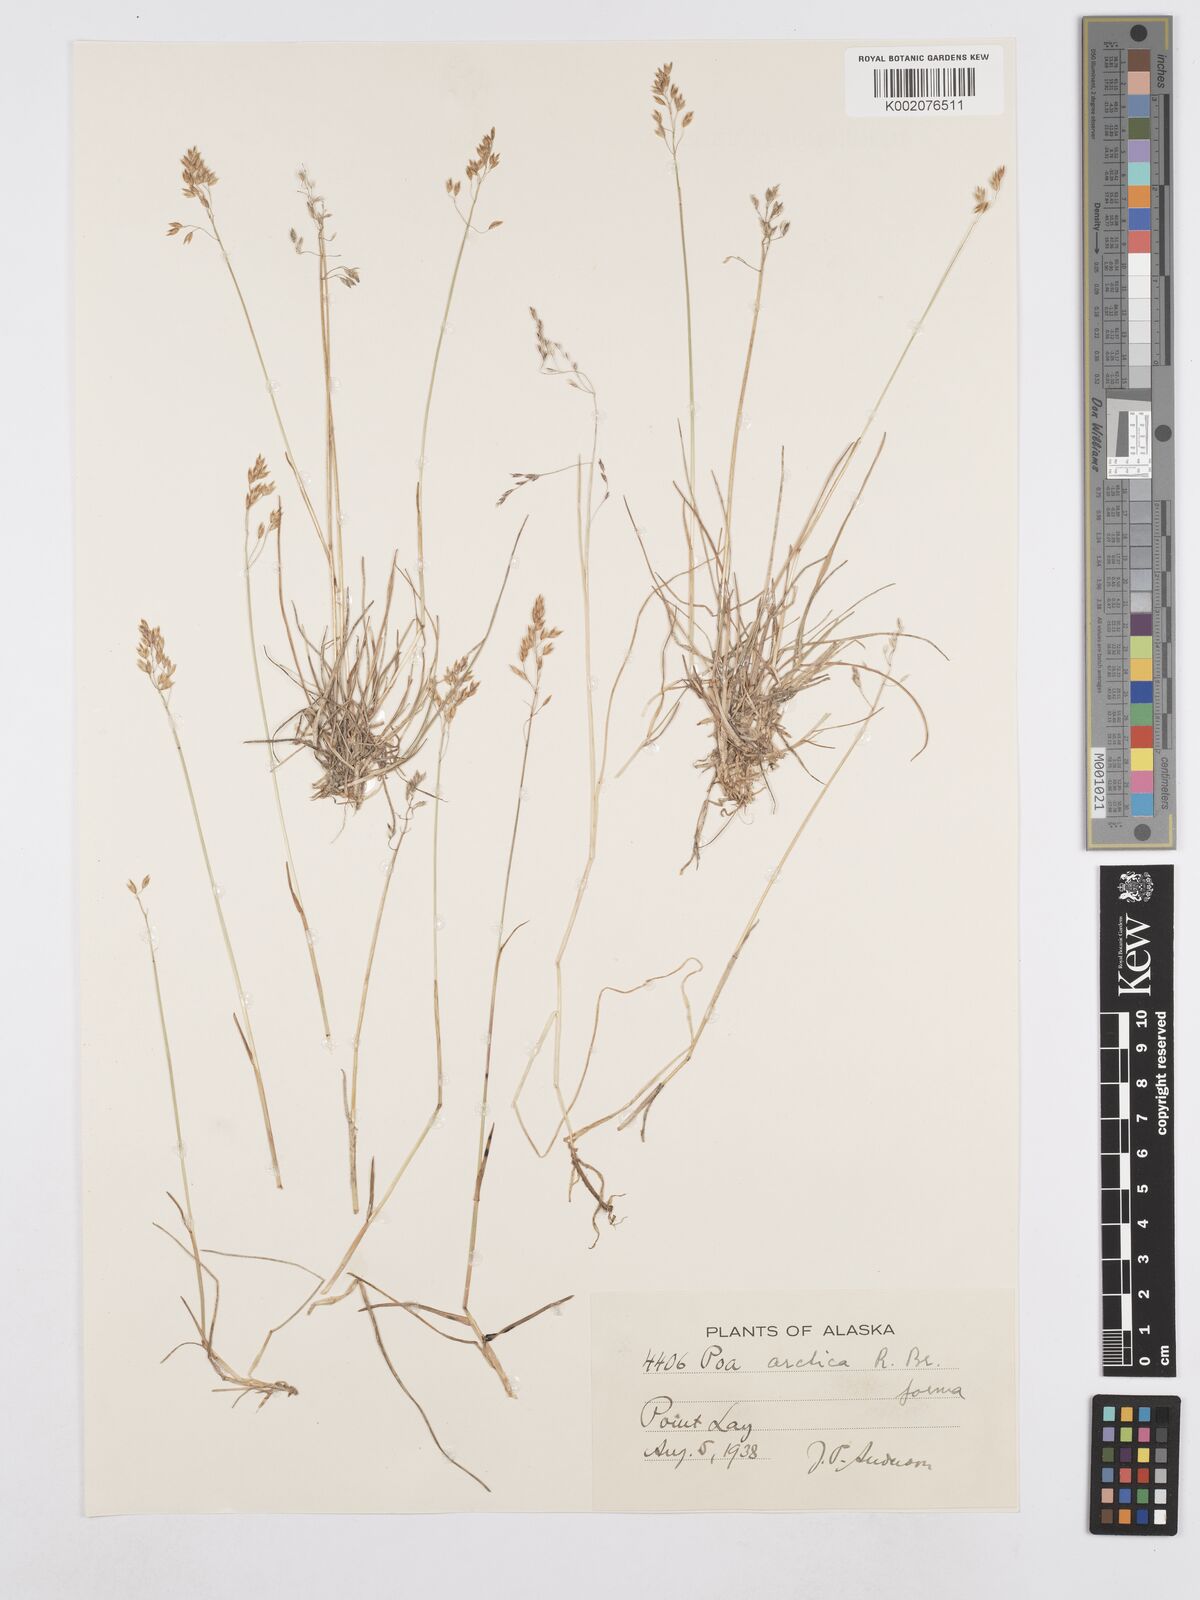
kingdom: Plantae
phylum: Tracheophyta
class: Liliopsida
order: Poales
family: Poaceae
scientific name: Poaceae
